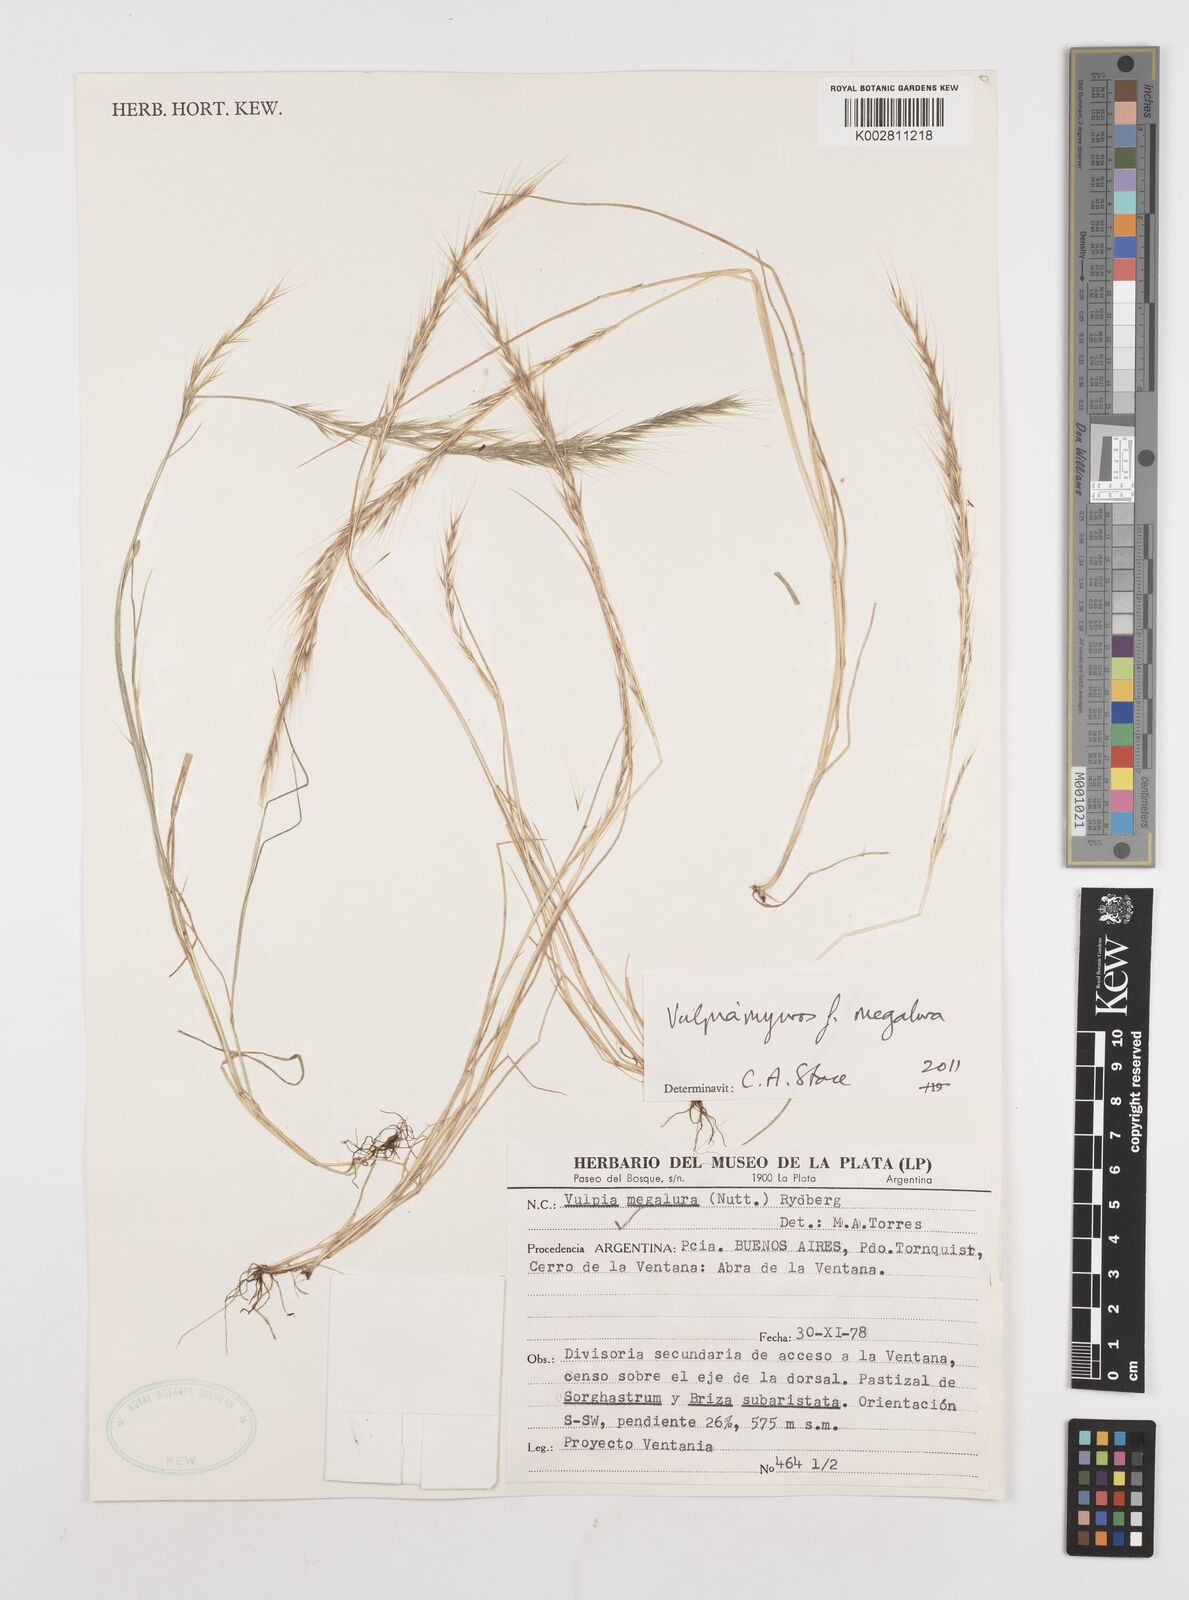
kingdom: Plantae
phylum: Tracheophyta
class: Liliopsida
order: Poales
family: Poaceae
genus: Festuca
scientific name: Festuca myuros
